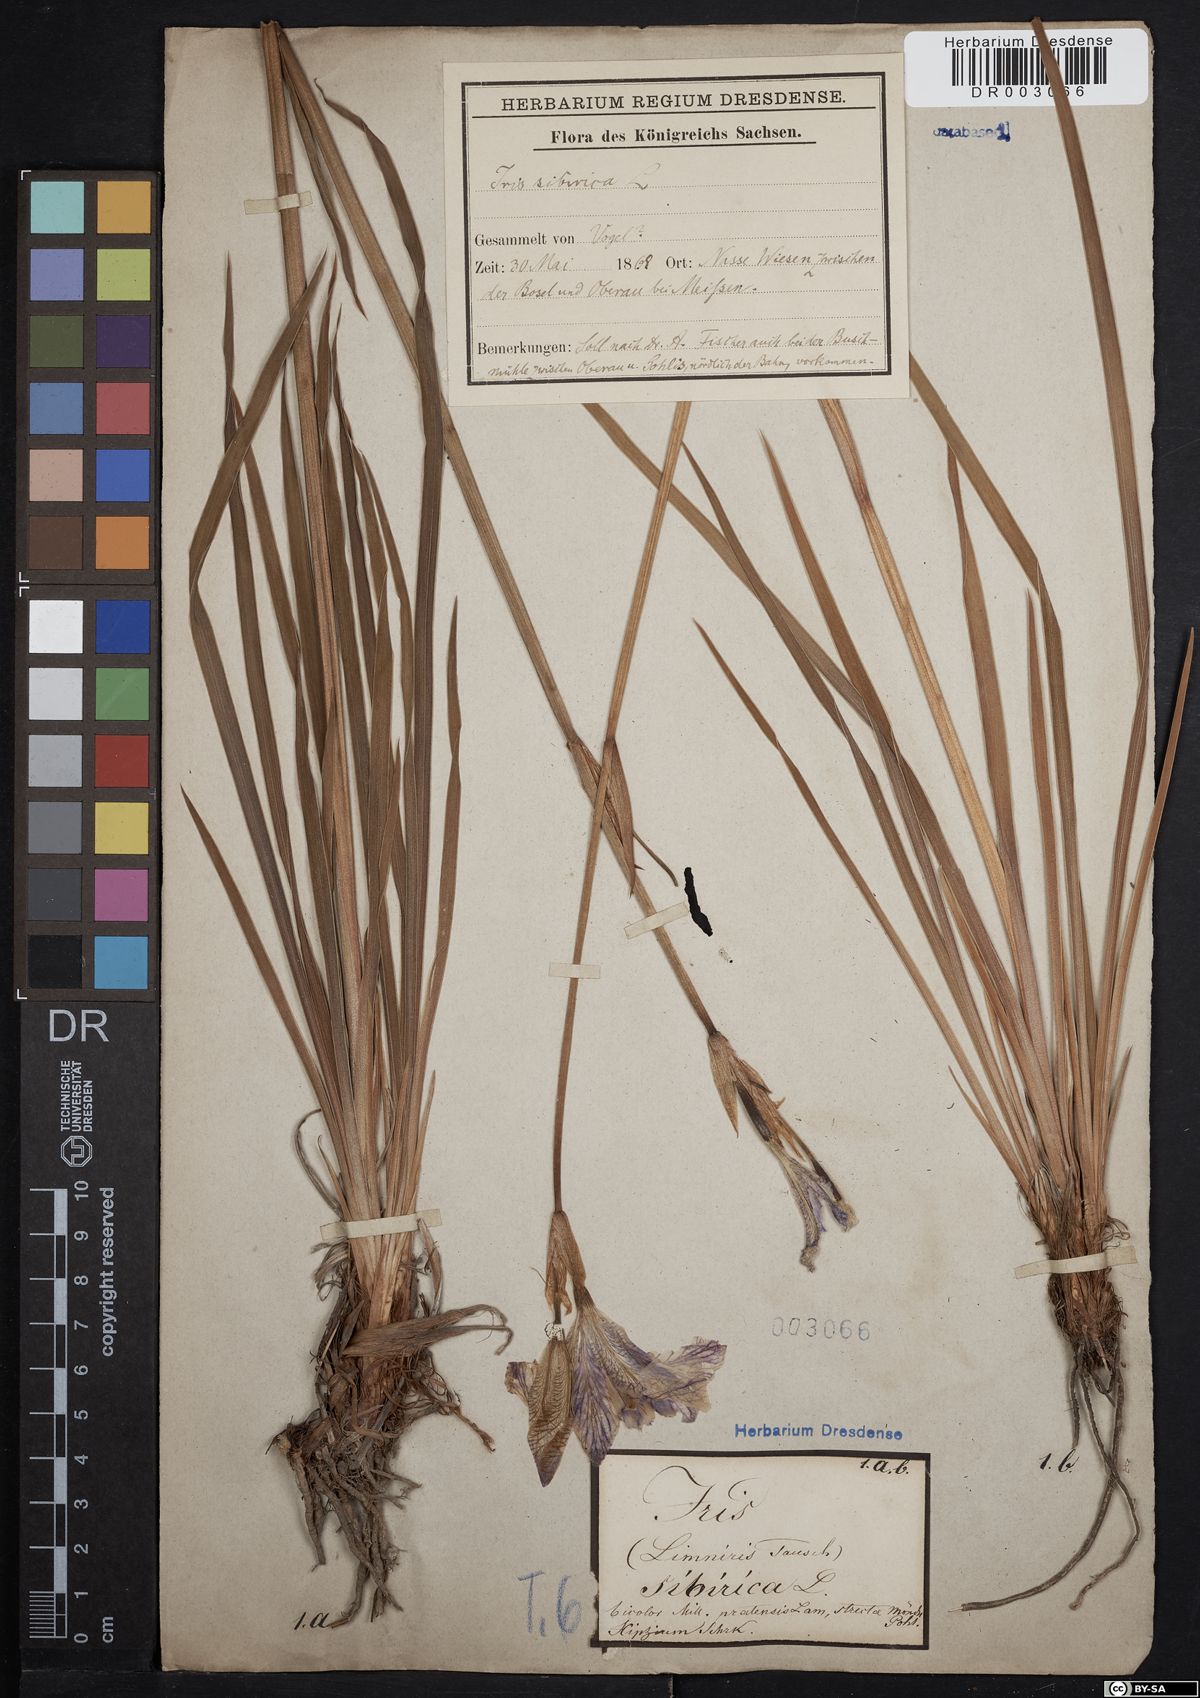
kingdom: Plantae
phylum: Tracheophyta
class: Liliopsida
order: Asparagales
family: Iridaceae
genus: Iris
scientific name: Iris sibirica
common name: Siberian iris
